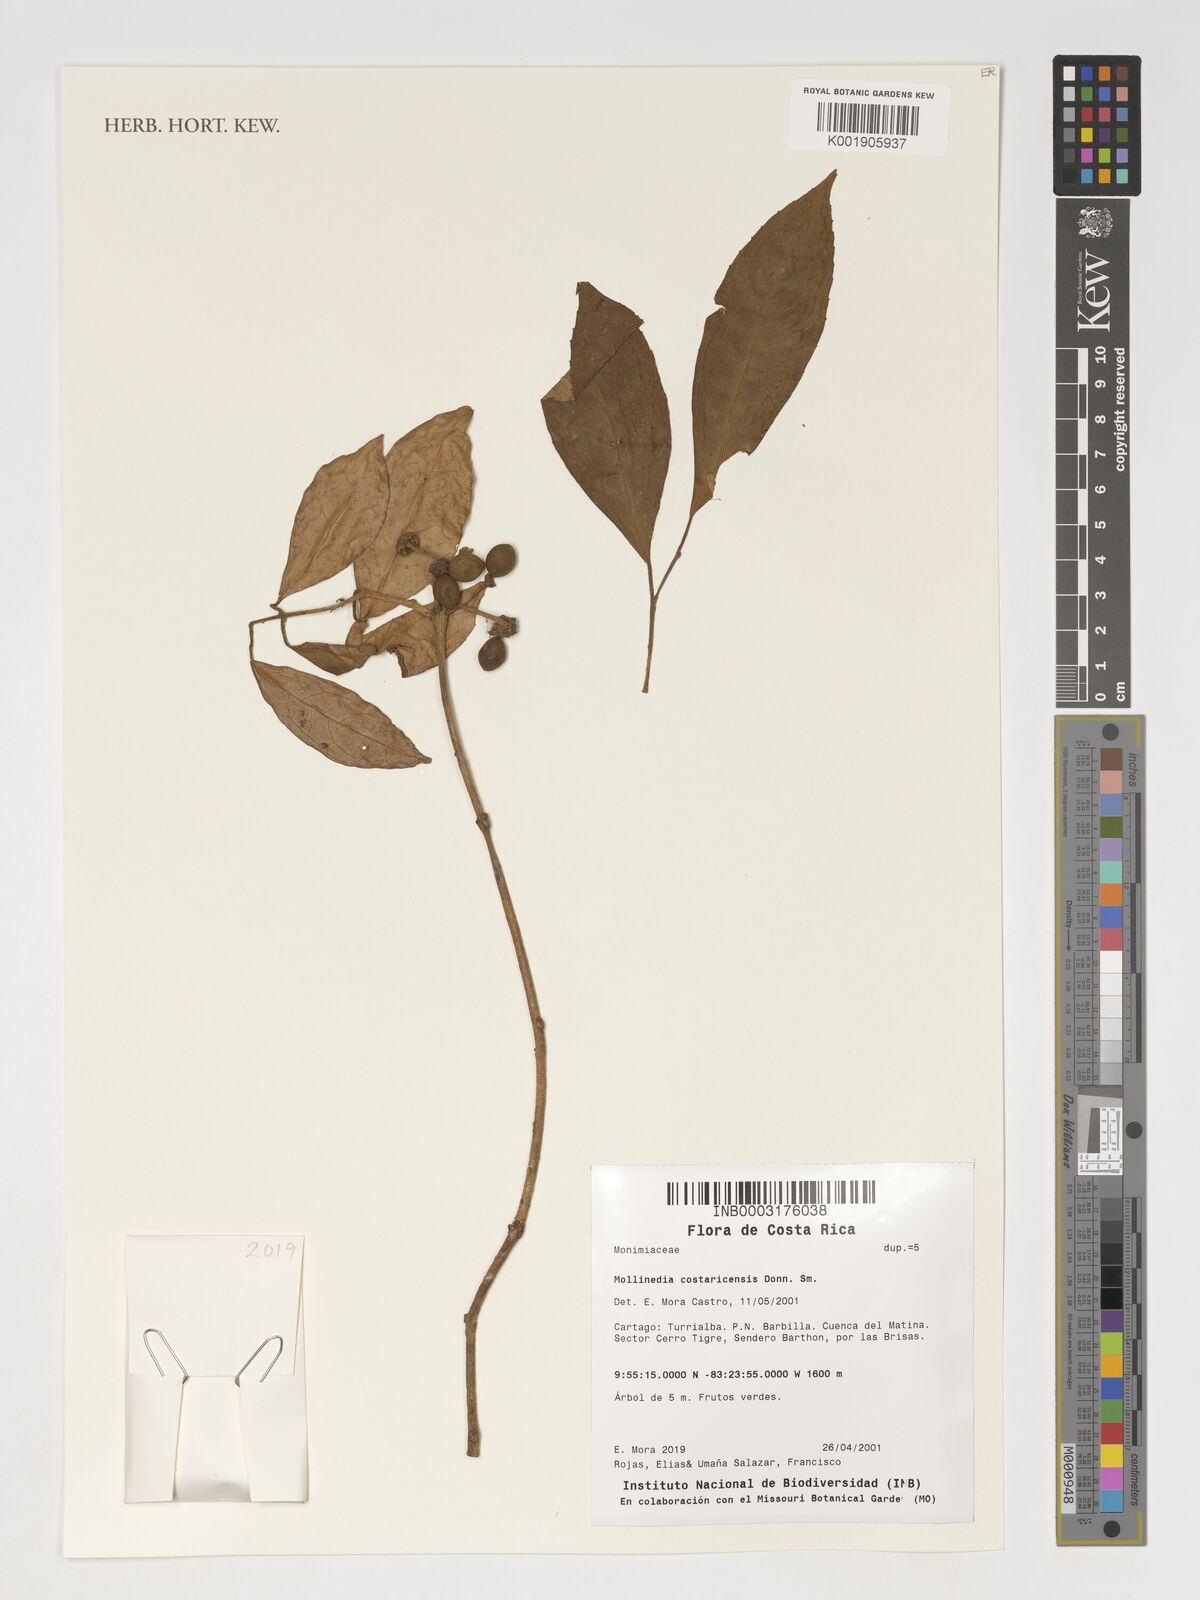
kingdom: Plantae
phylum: Tracheophyta
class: Magnoliopsida
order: Laurales
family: Monimiaceae
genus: Mollinedia
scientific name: Mollinedia costaricensis
